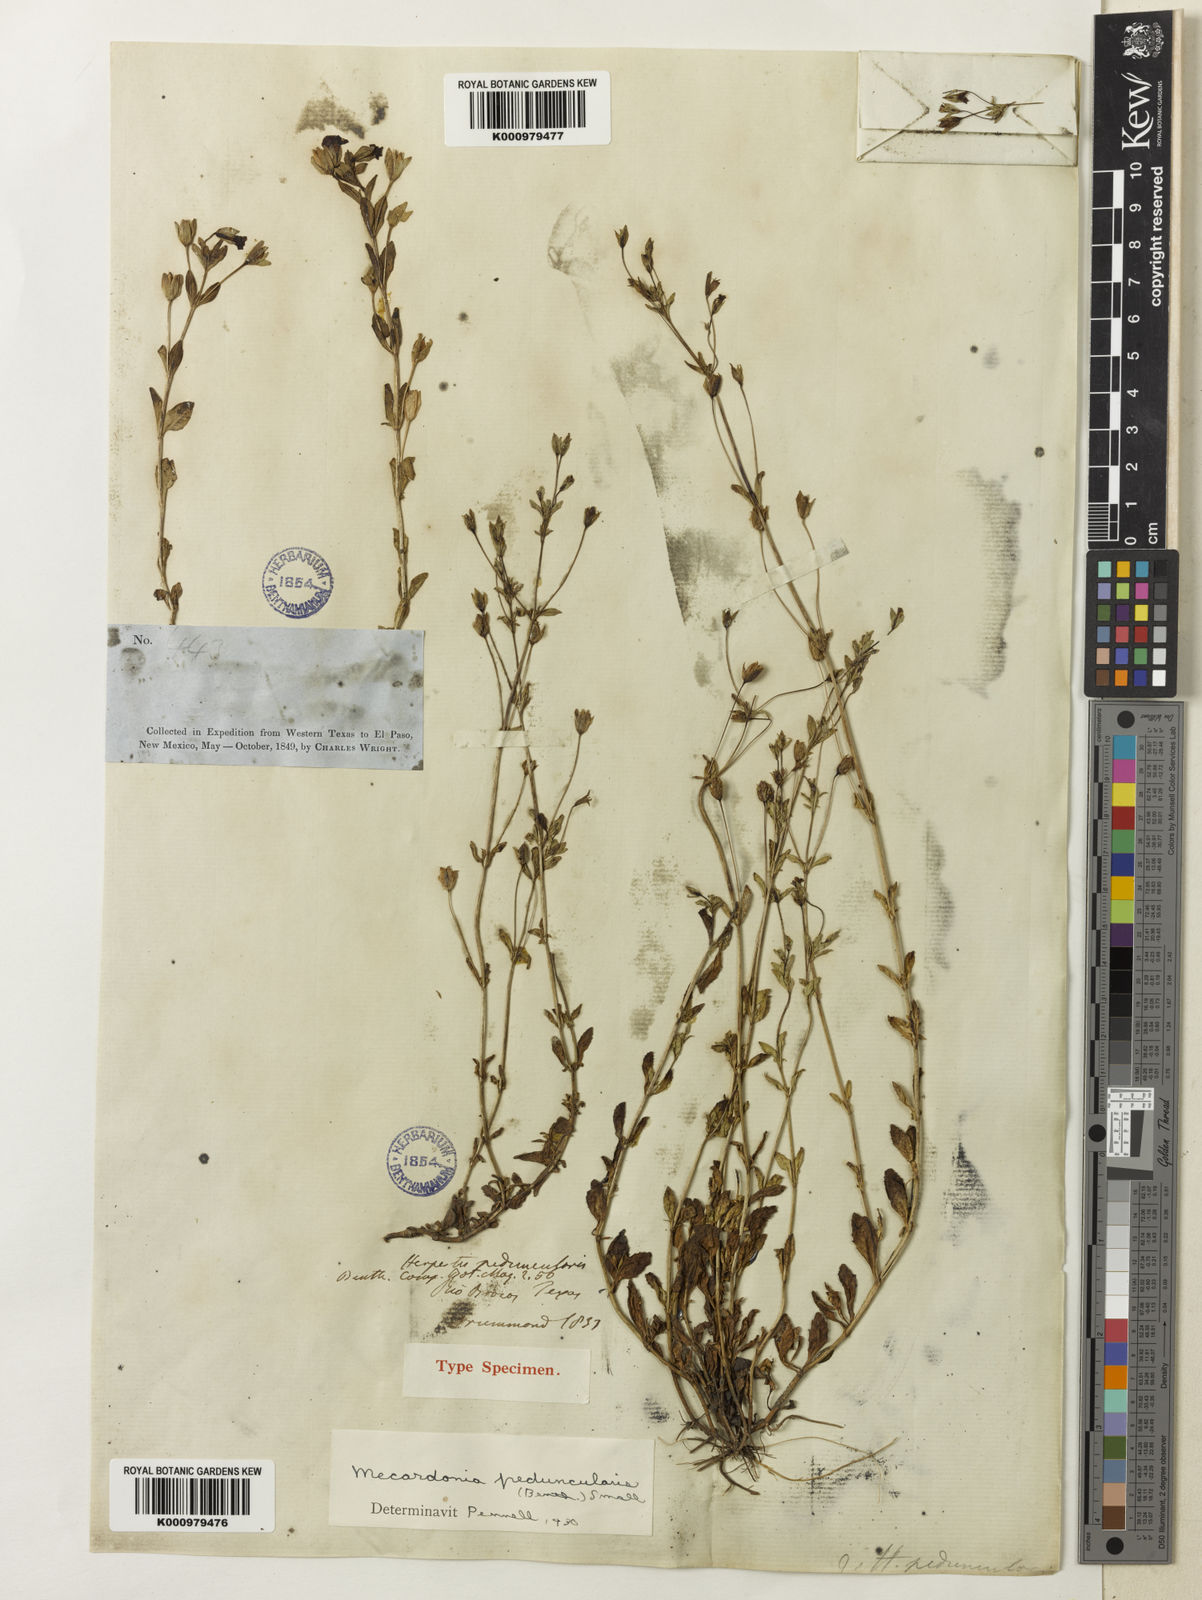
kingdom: Plantae
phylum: Tracheophyta
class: Magnoliopsida
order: Lamiales
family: Plantaginaceae
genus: Mecardonia
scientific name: Mecardonia procumbens
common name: Baby jump-up
